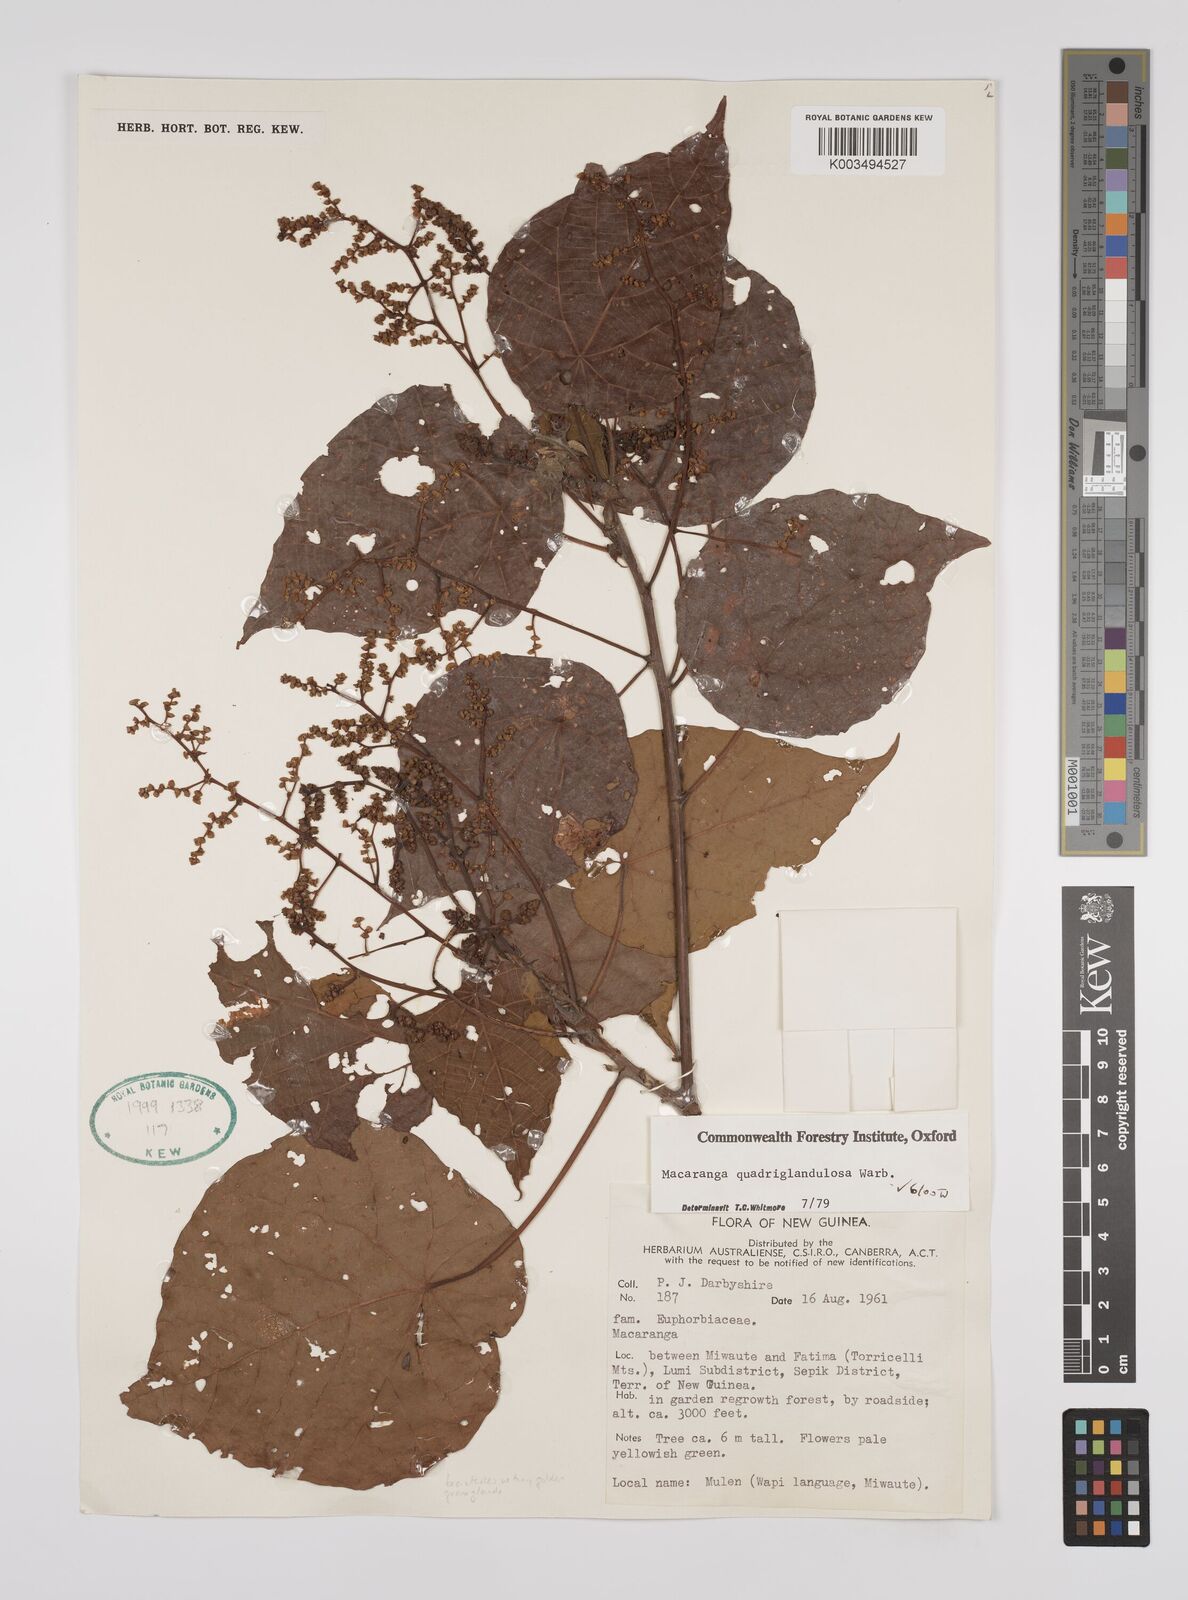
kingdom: Plantae
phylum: Tracheophyta
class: Magnoliopsida
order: Malpighiales
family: Euphorbiaceae
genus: Macaranga
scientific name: Macaranga quadriglandulosa
